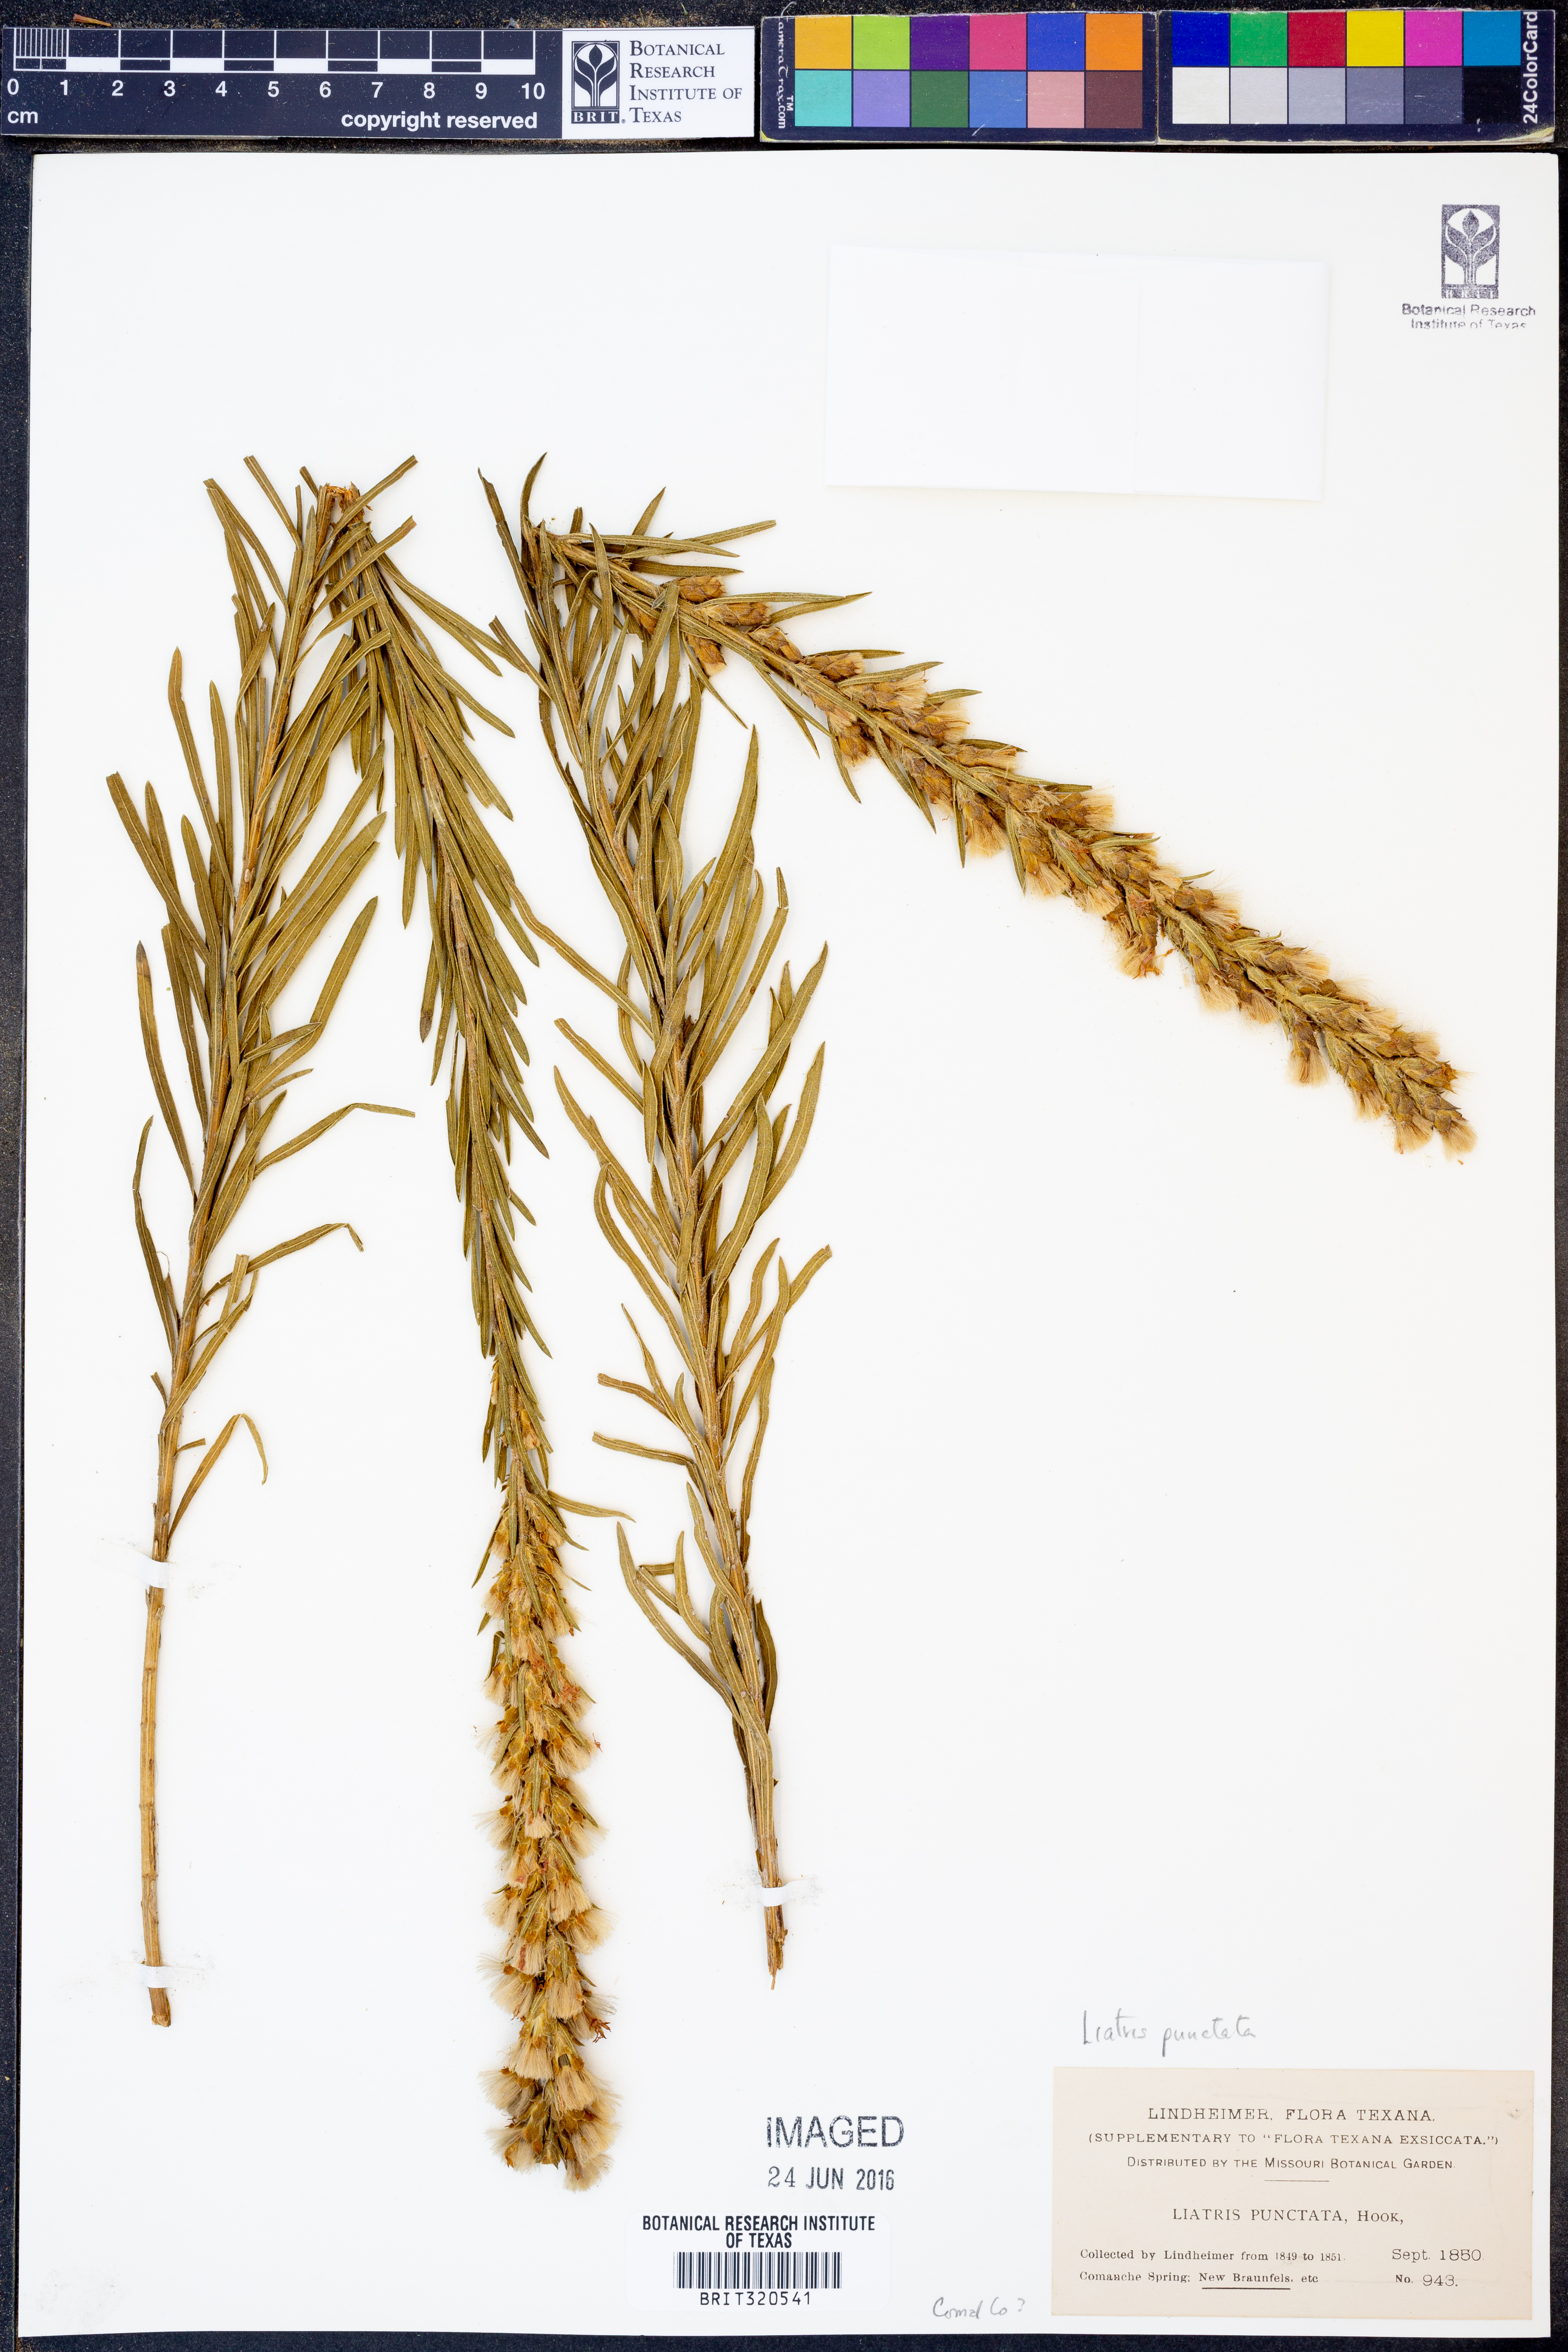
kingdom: Plantae
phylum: Tracheophyta
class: Magnoliopsida
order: Asterales
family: Asteraceae
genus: Liatris
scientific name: Liatris punctata
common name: Dotted gayfeather
